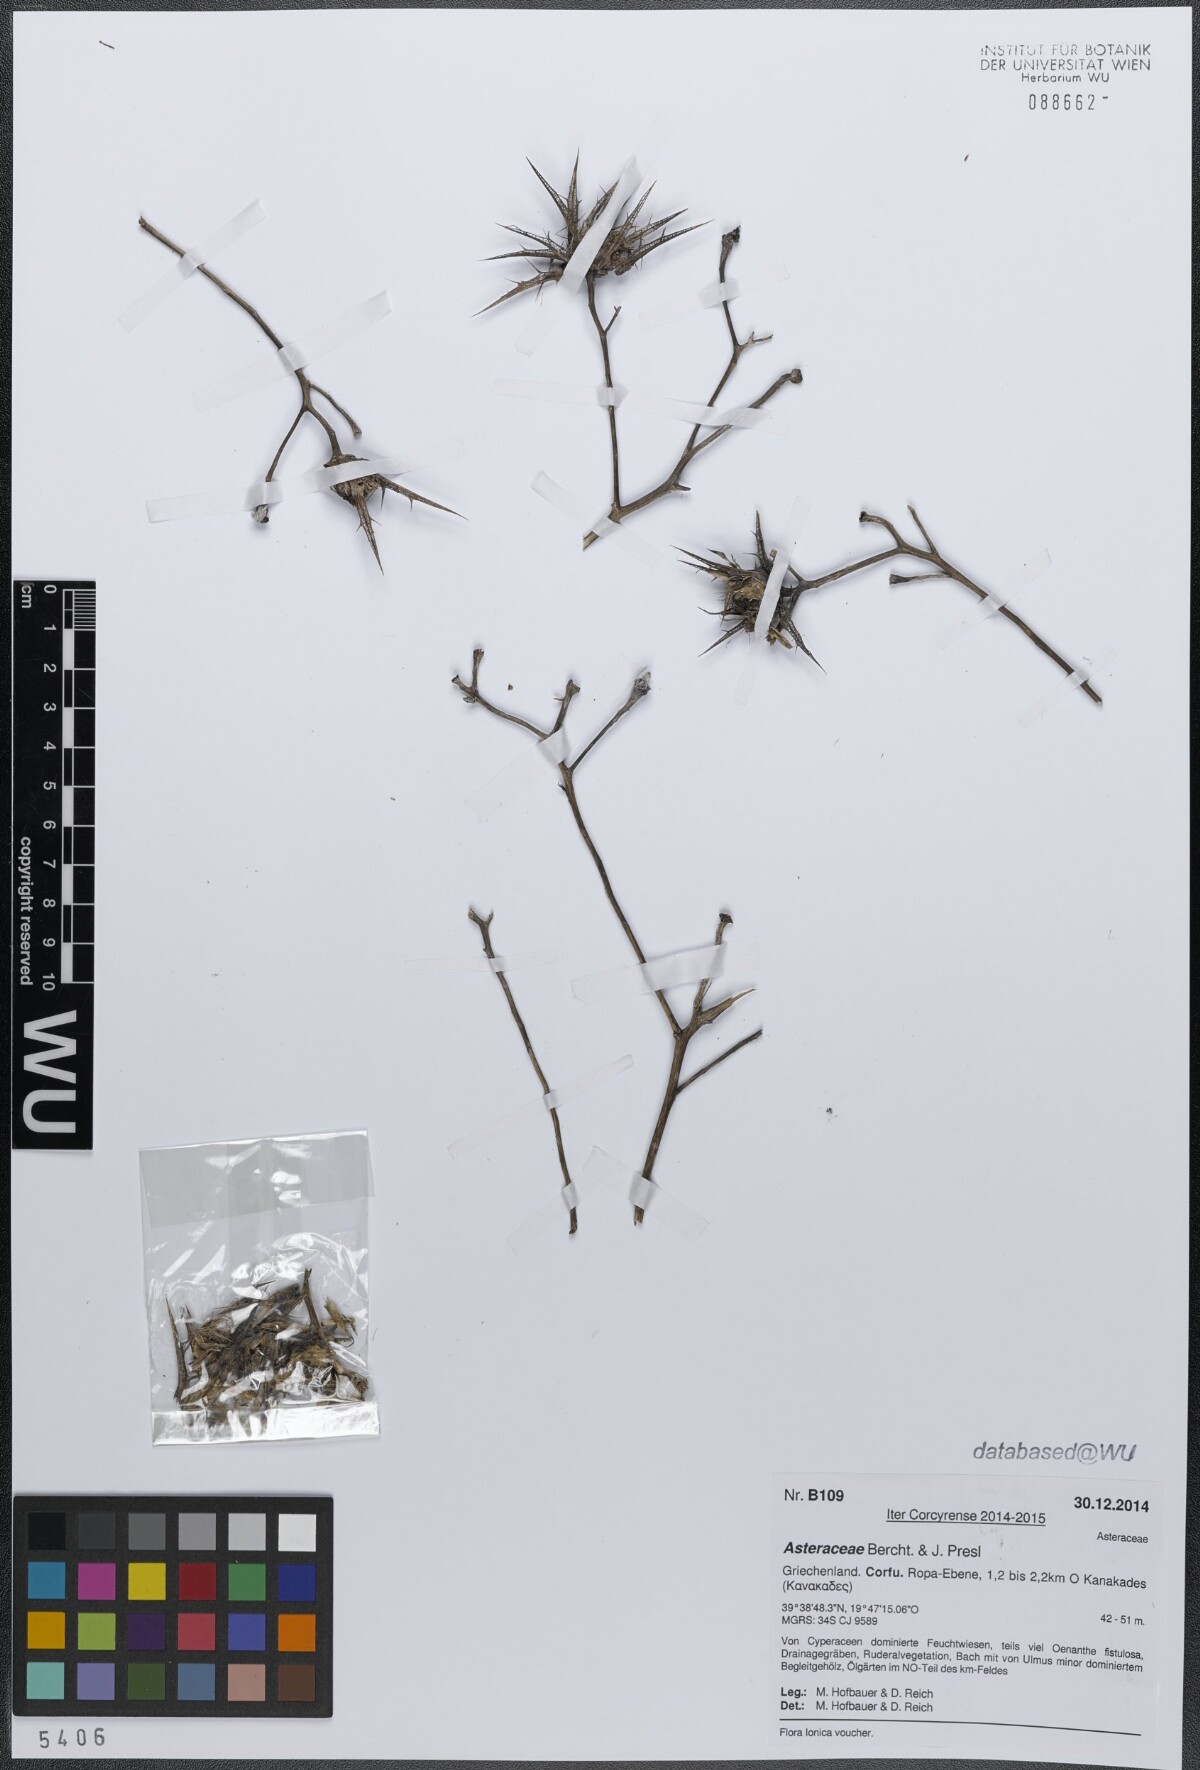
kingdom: Plantae
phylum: Tracheophyta
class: Magnoliopsida
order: Asterales
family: Asteraceae
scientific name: Asteraceae
